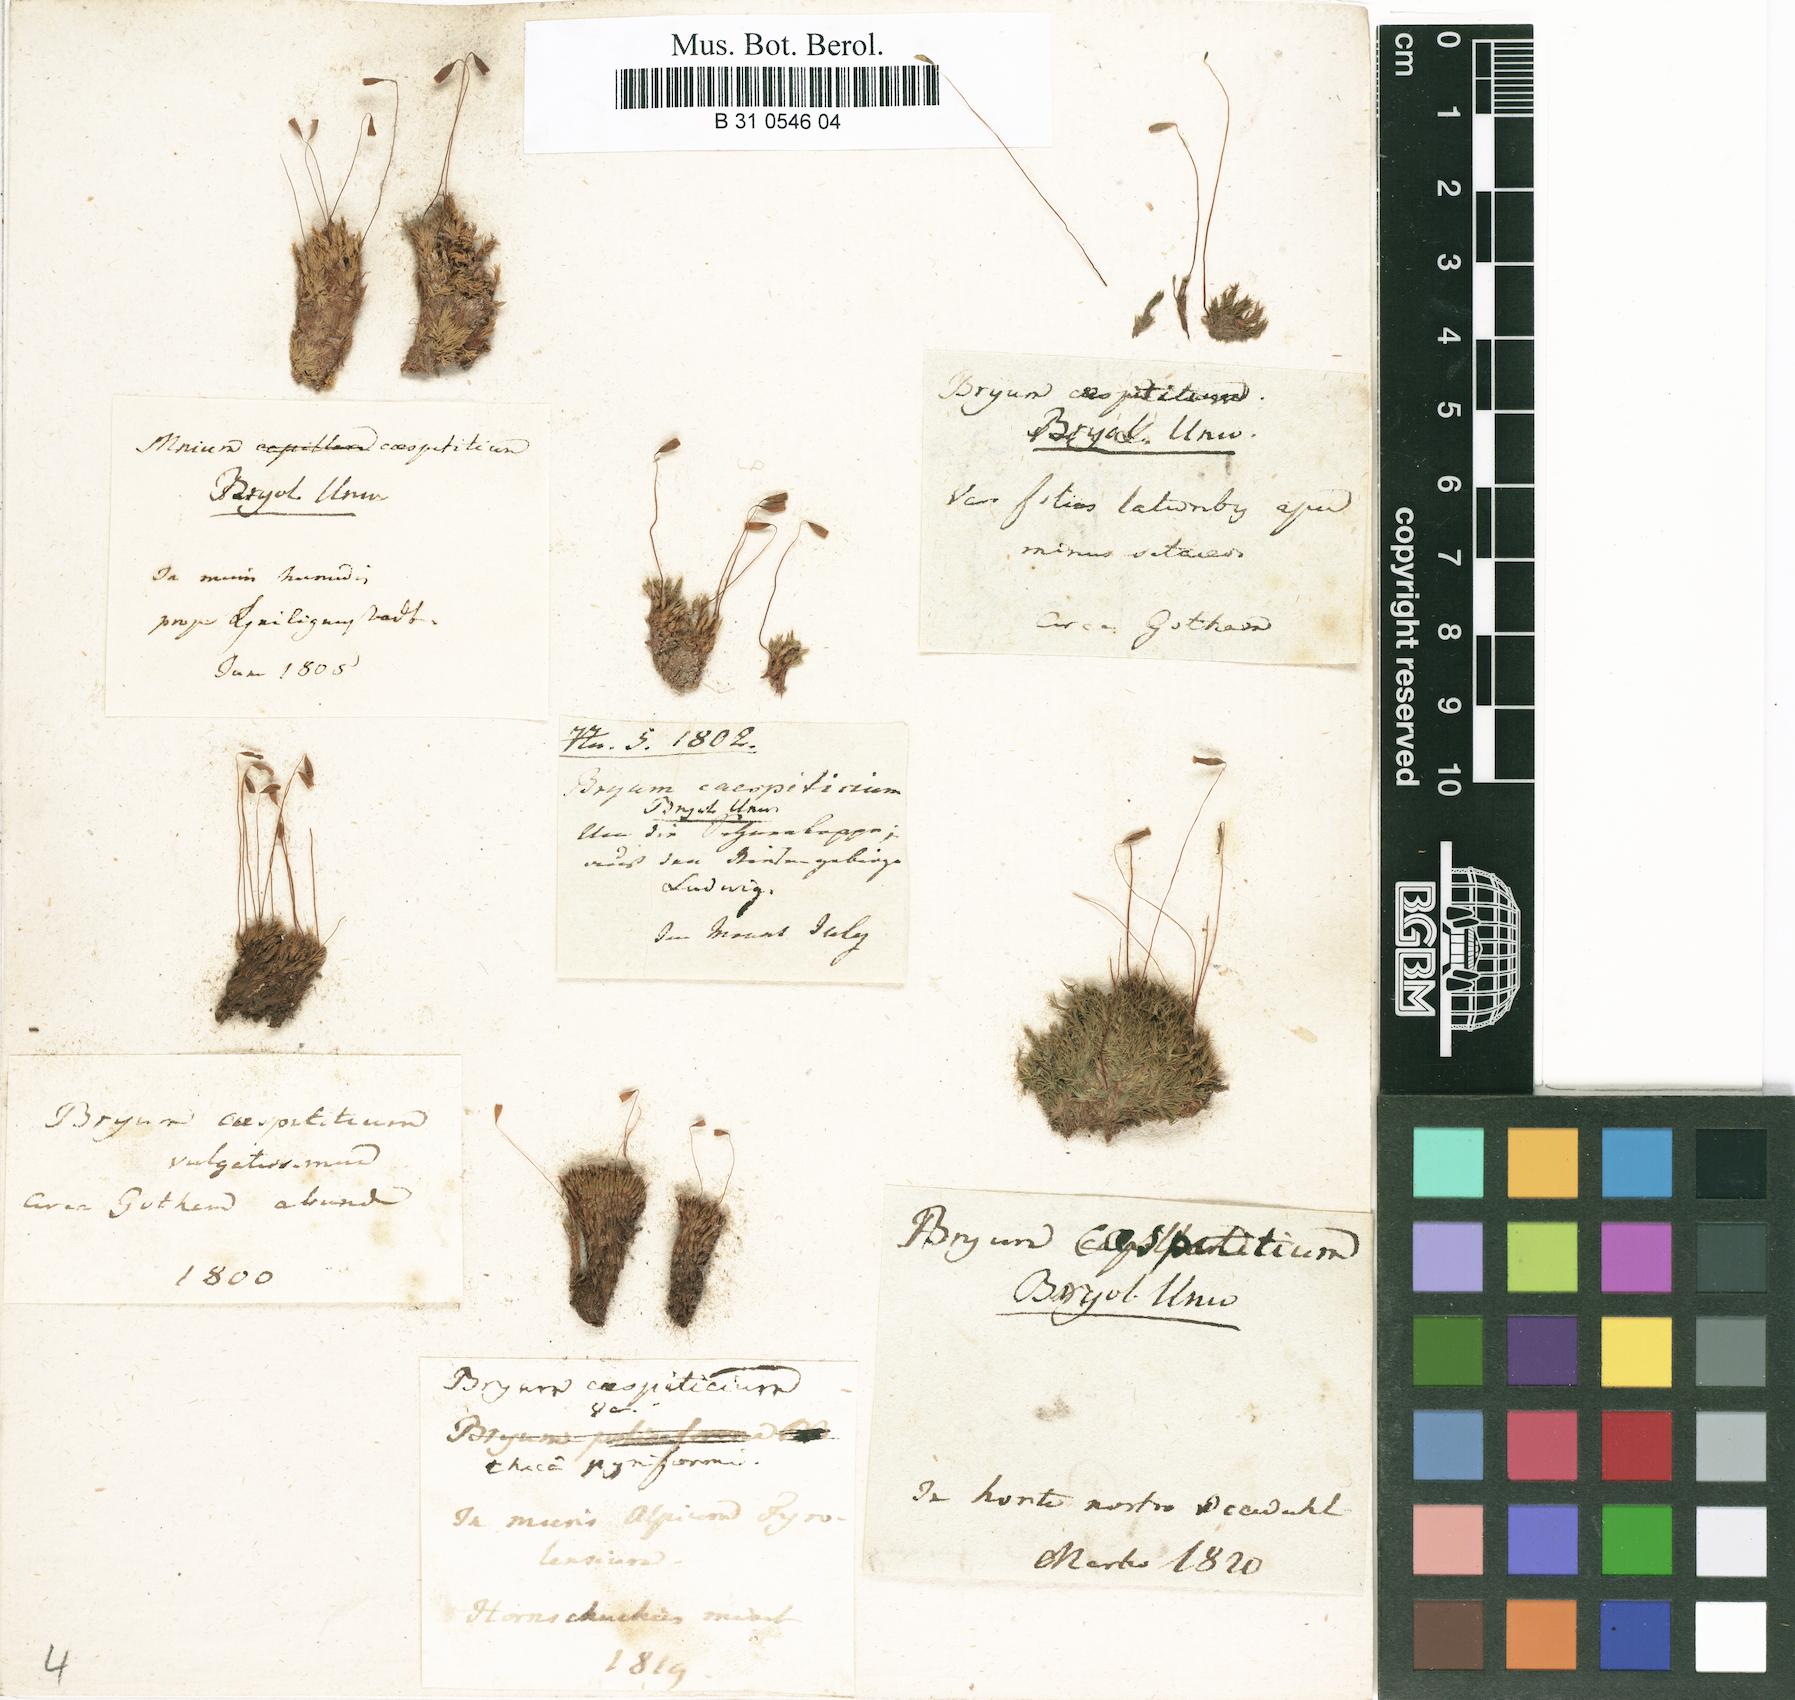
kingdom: Plantae
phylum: Bryophyta
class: Bryopsida
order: Bryales
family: Bryaceae
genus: Gemmabryum
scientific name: Gemmabryum caespiticium
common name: Handbell moss
